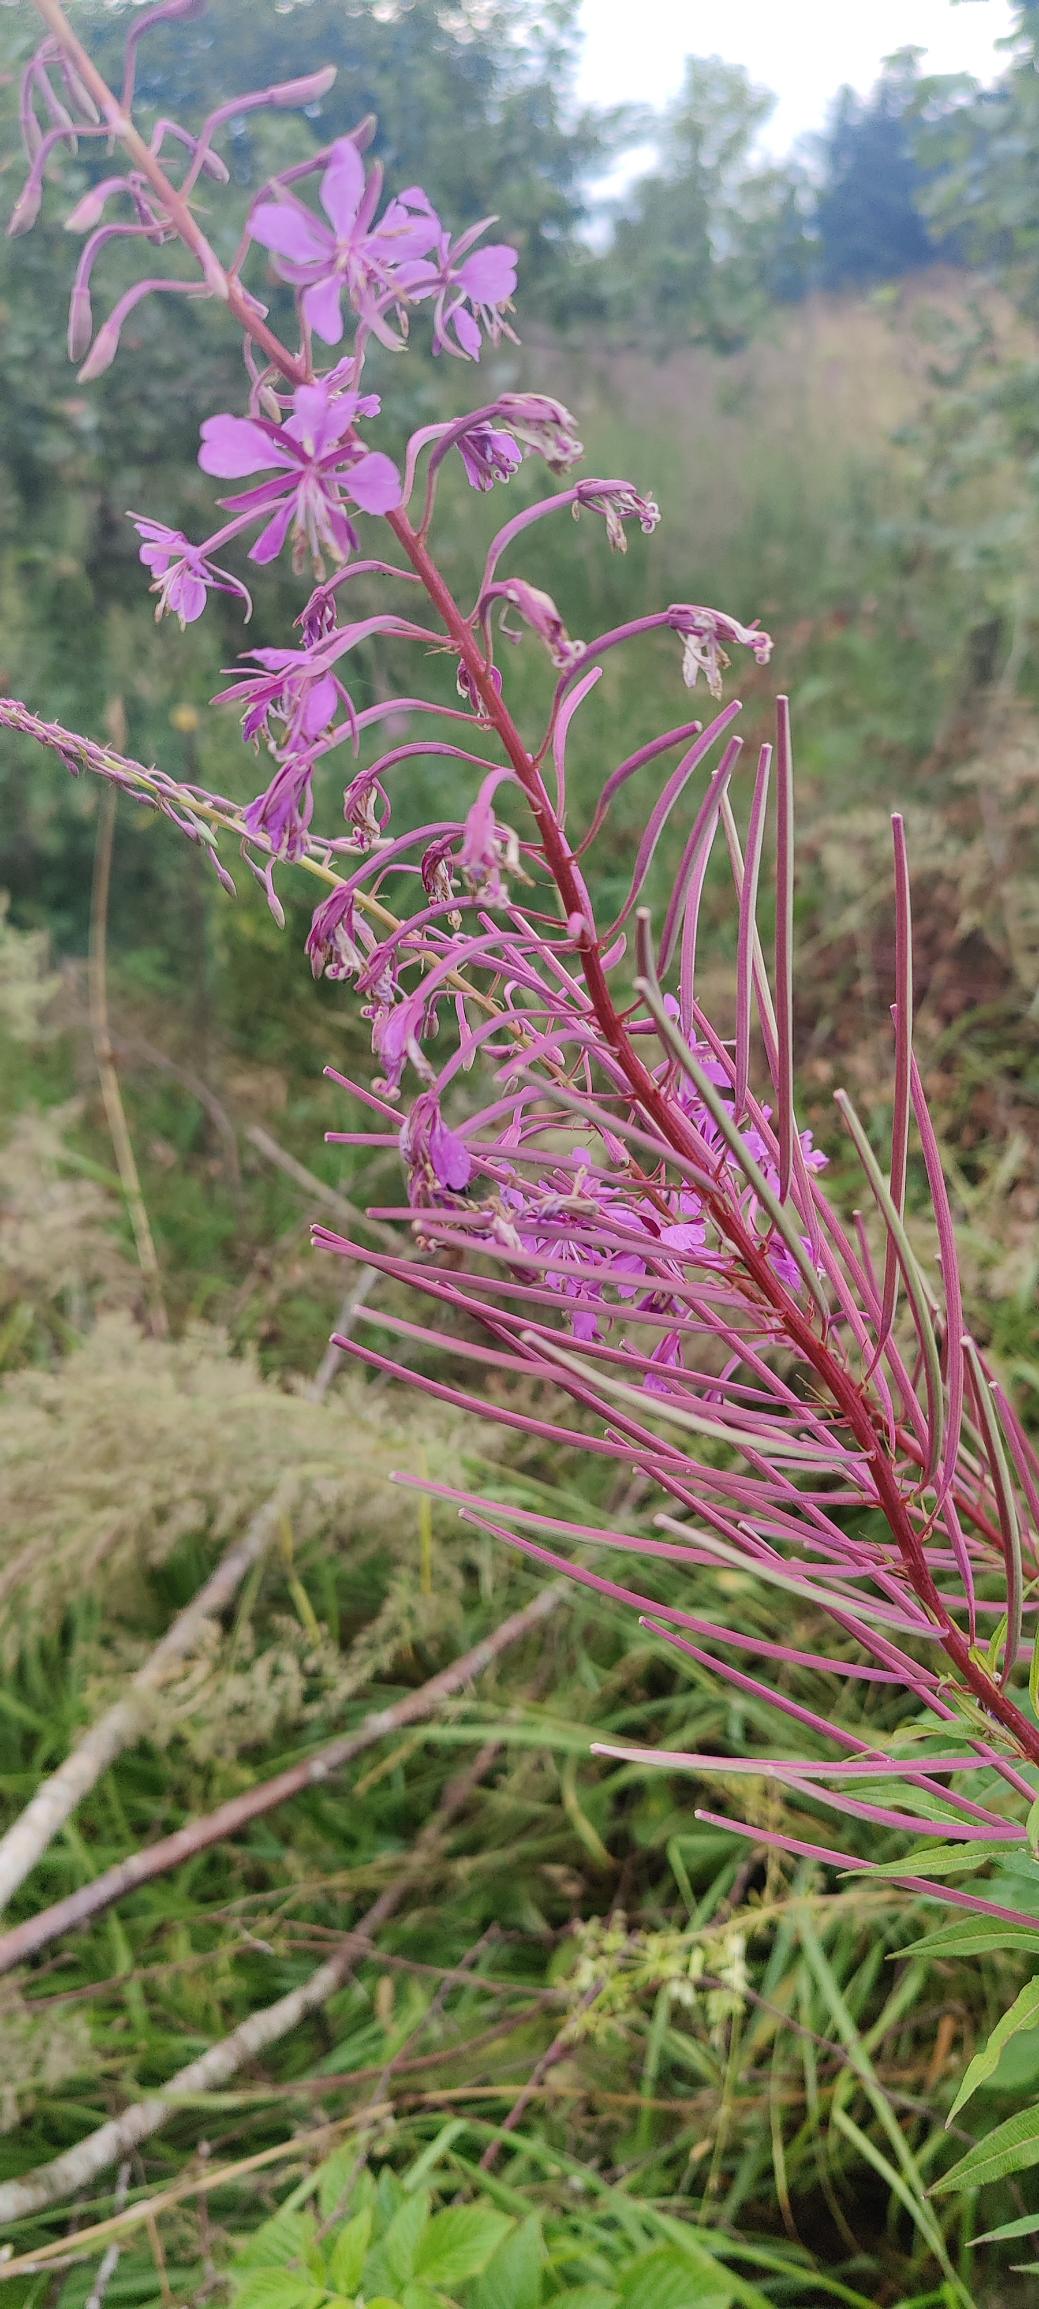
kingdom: Plantae
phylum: Tracheophyta
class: Magnoliopsida
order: Myrtales
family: Onagraceae
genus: Chamaenerion
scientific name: Chamaenerion angustifolium
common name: Gederams
